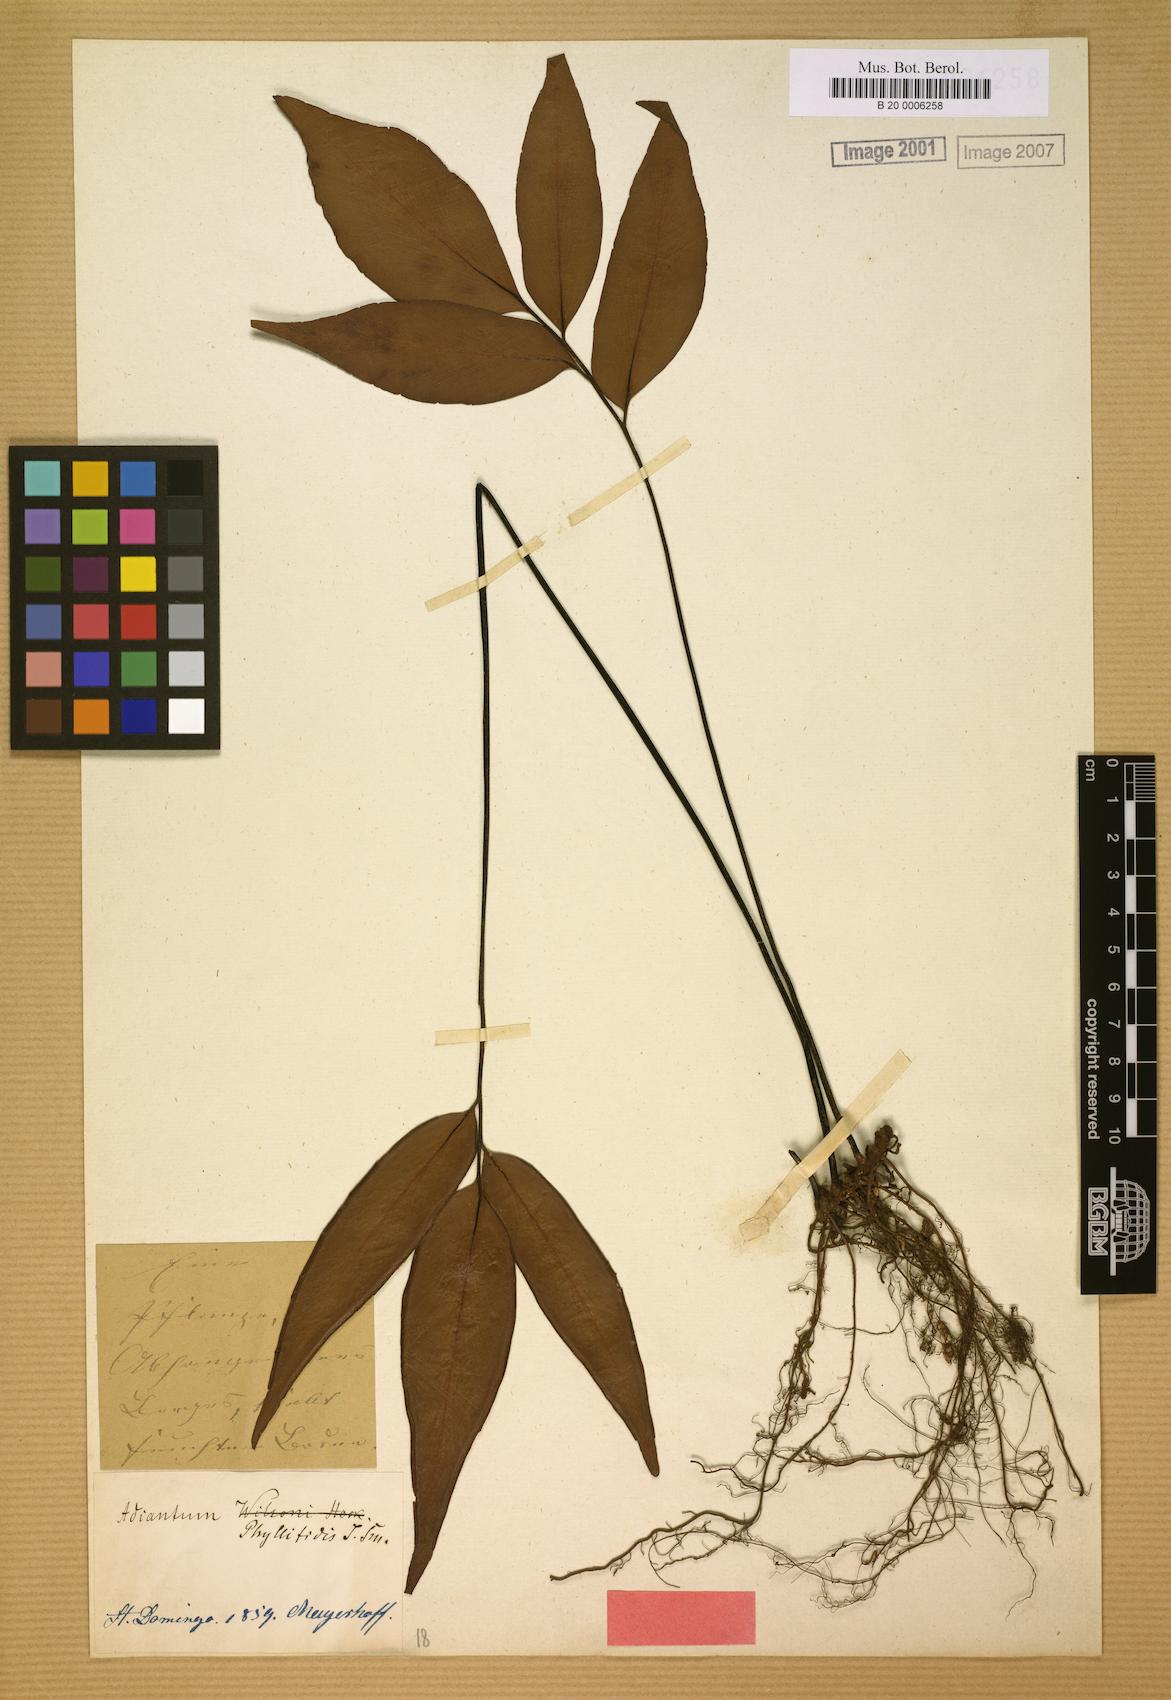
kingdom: Plantae
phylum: Tracheophyta
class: Polypodiopsida
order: Polypodiales
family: Pteridaceae
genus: Adiantum
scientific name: Adiantum phyllitidis
